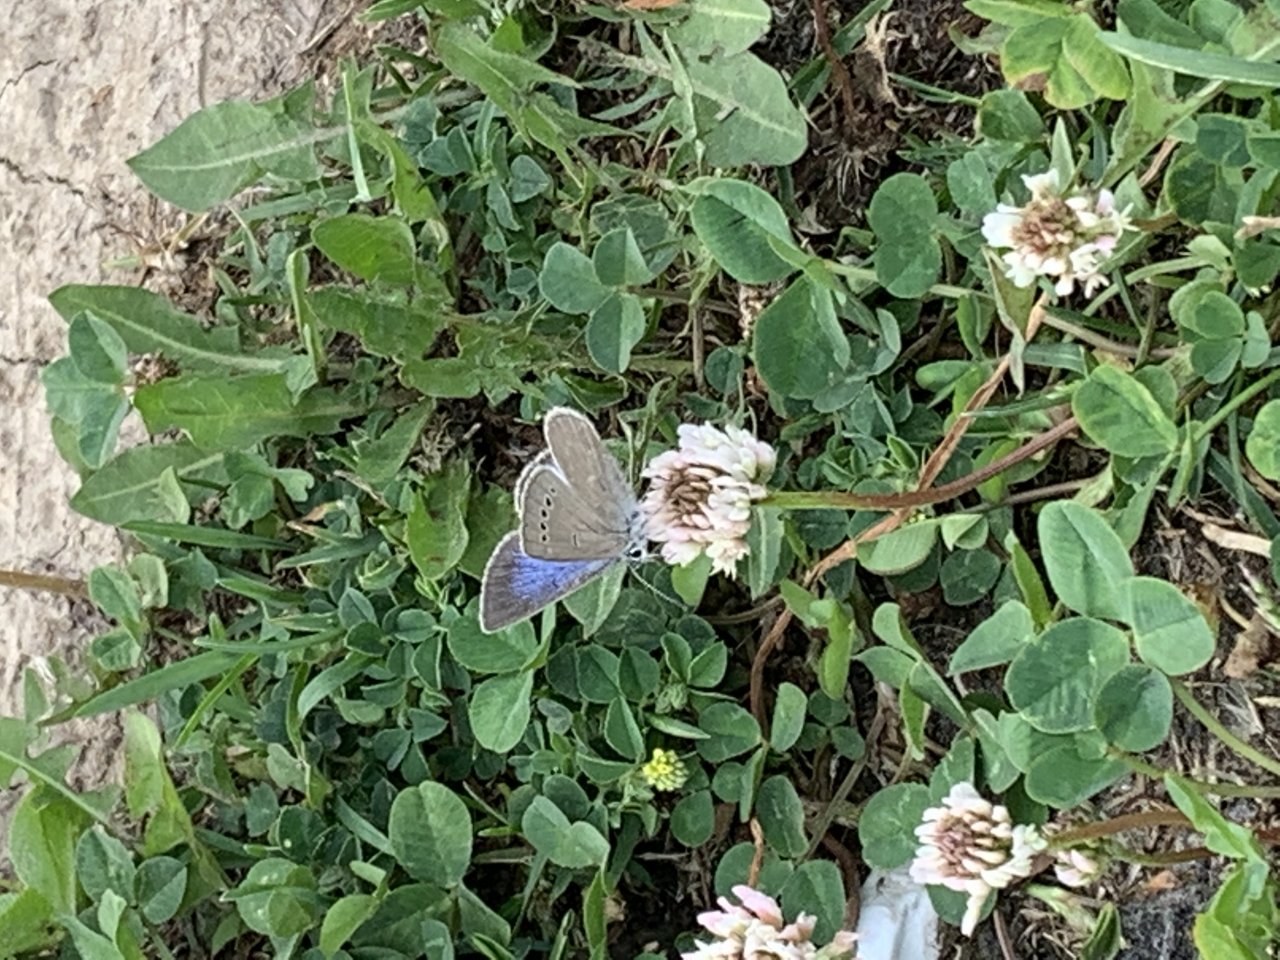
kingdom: Animalia
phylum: Arthropoda
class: Insecta
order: Lepidoptera
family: Lycaenidae
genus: Glaucopsyche
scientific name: Glaucopsyche lygdamus
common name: Silvery Blue
